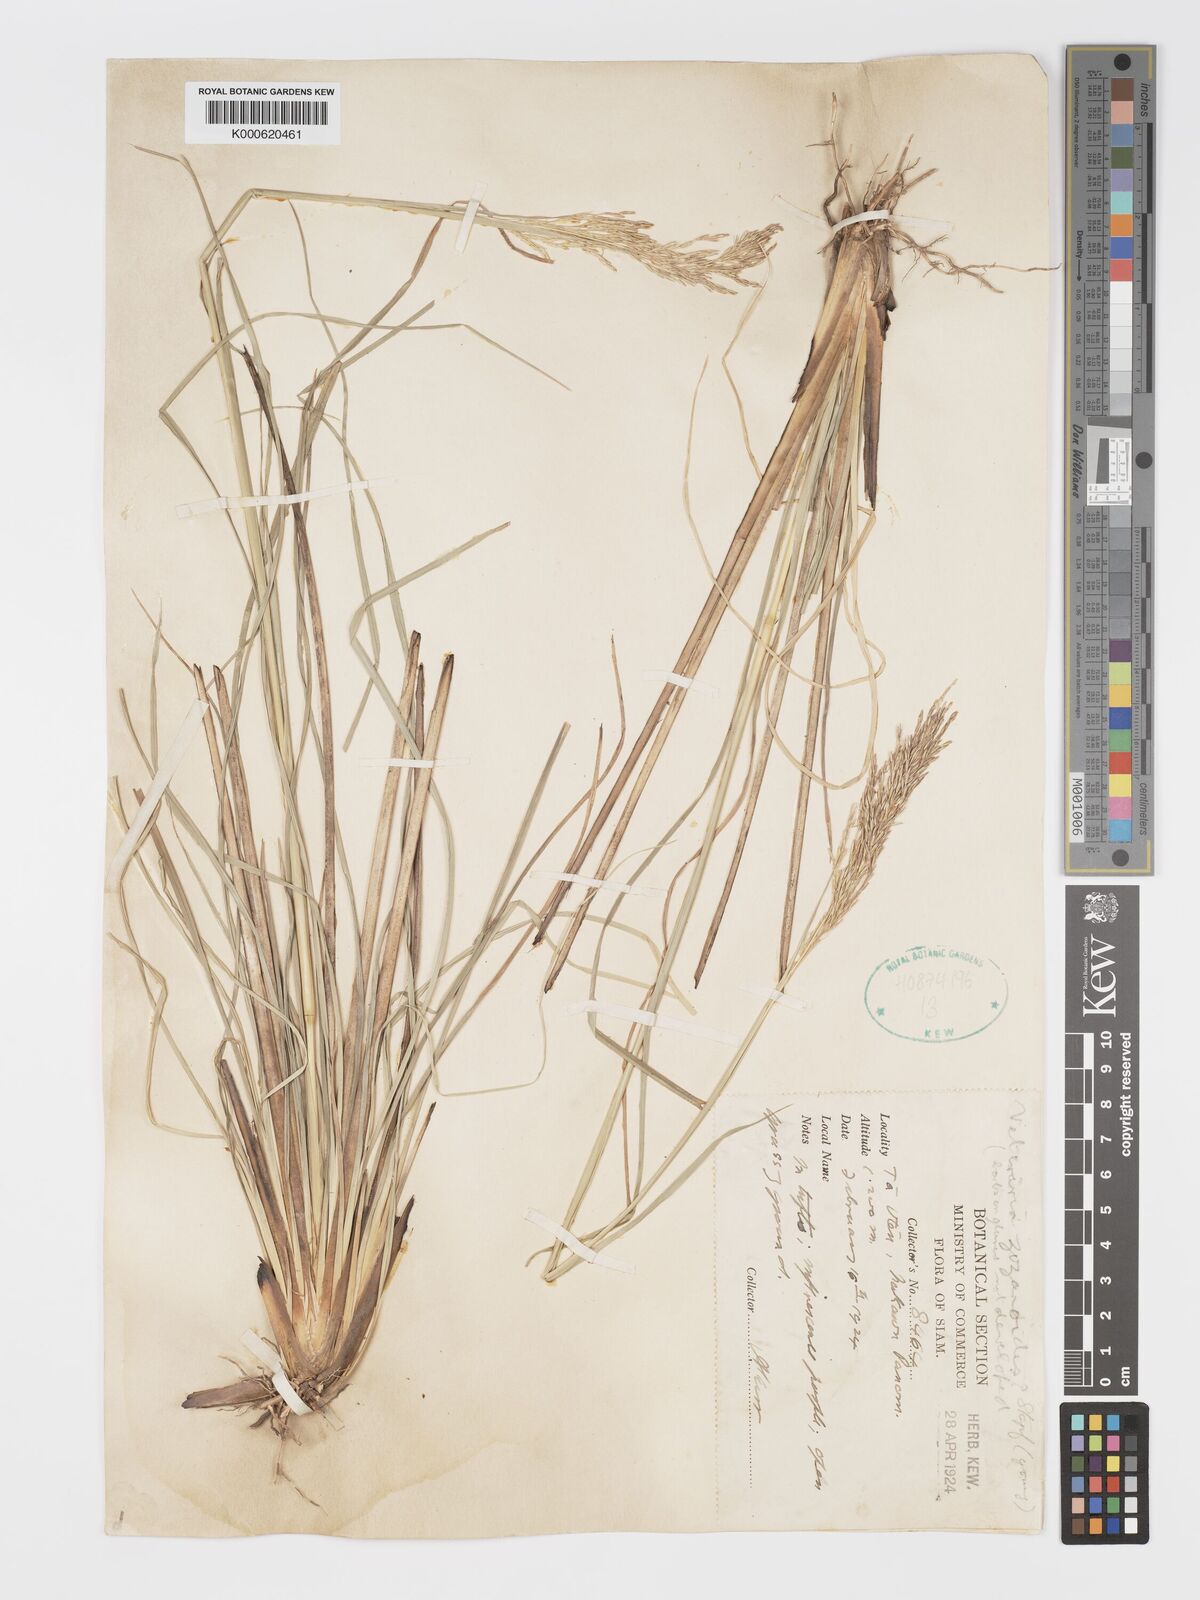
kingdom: Plantae
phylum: Tracheophyta
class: Liliopsida
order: Poales
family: Poaceae
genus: Chrysopogon
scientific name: Chrysopogon zizanioides
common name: False beardgrass
